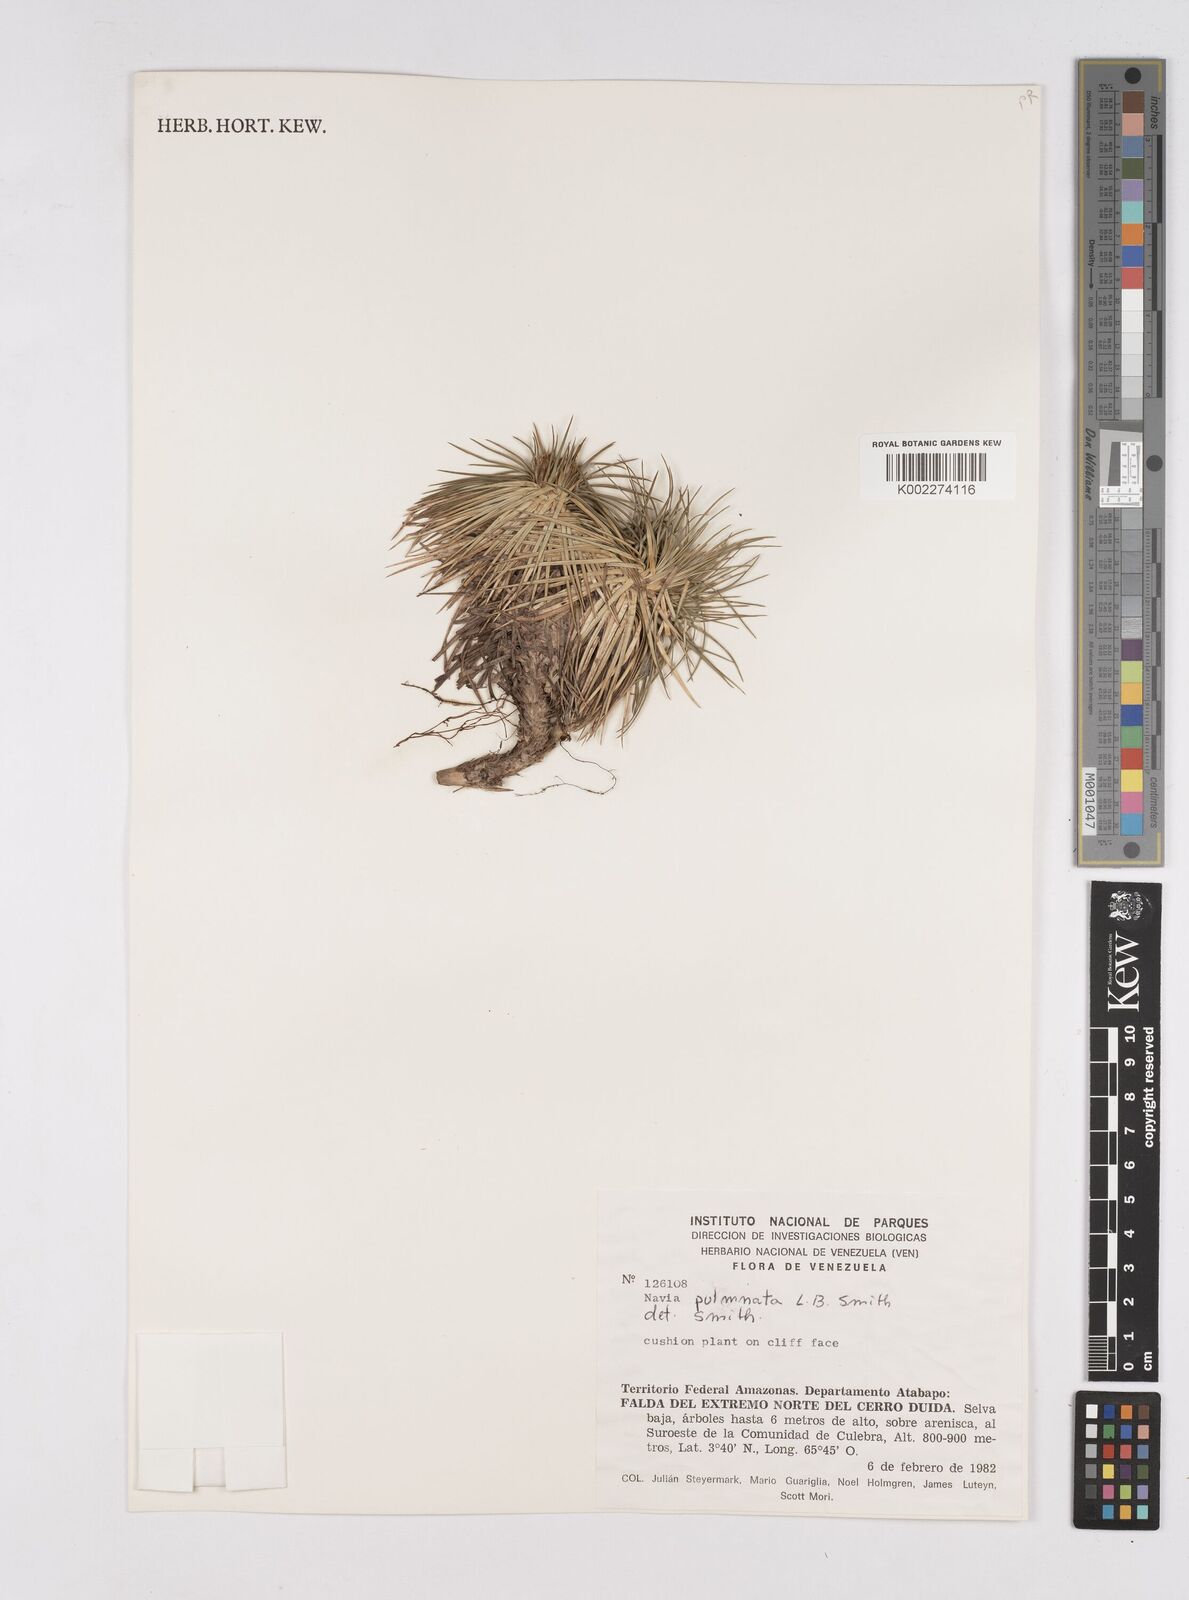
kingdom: Plantae
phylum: Tracheophyta
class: Liliopsida
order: Poales
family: Bromeliaceae
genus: Navia
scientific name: Navia pulvinata
